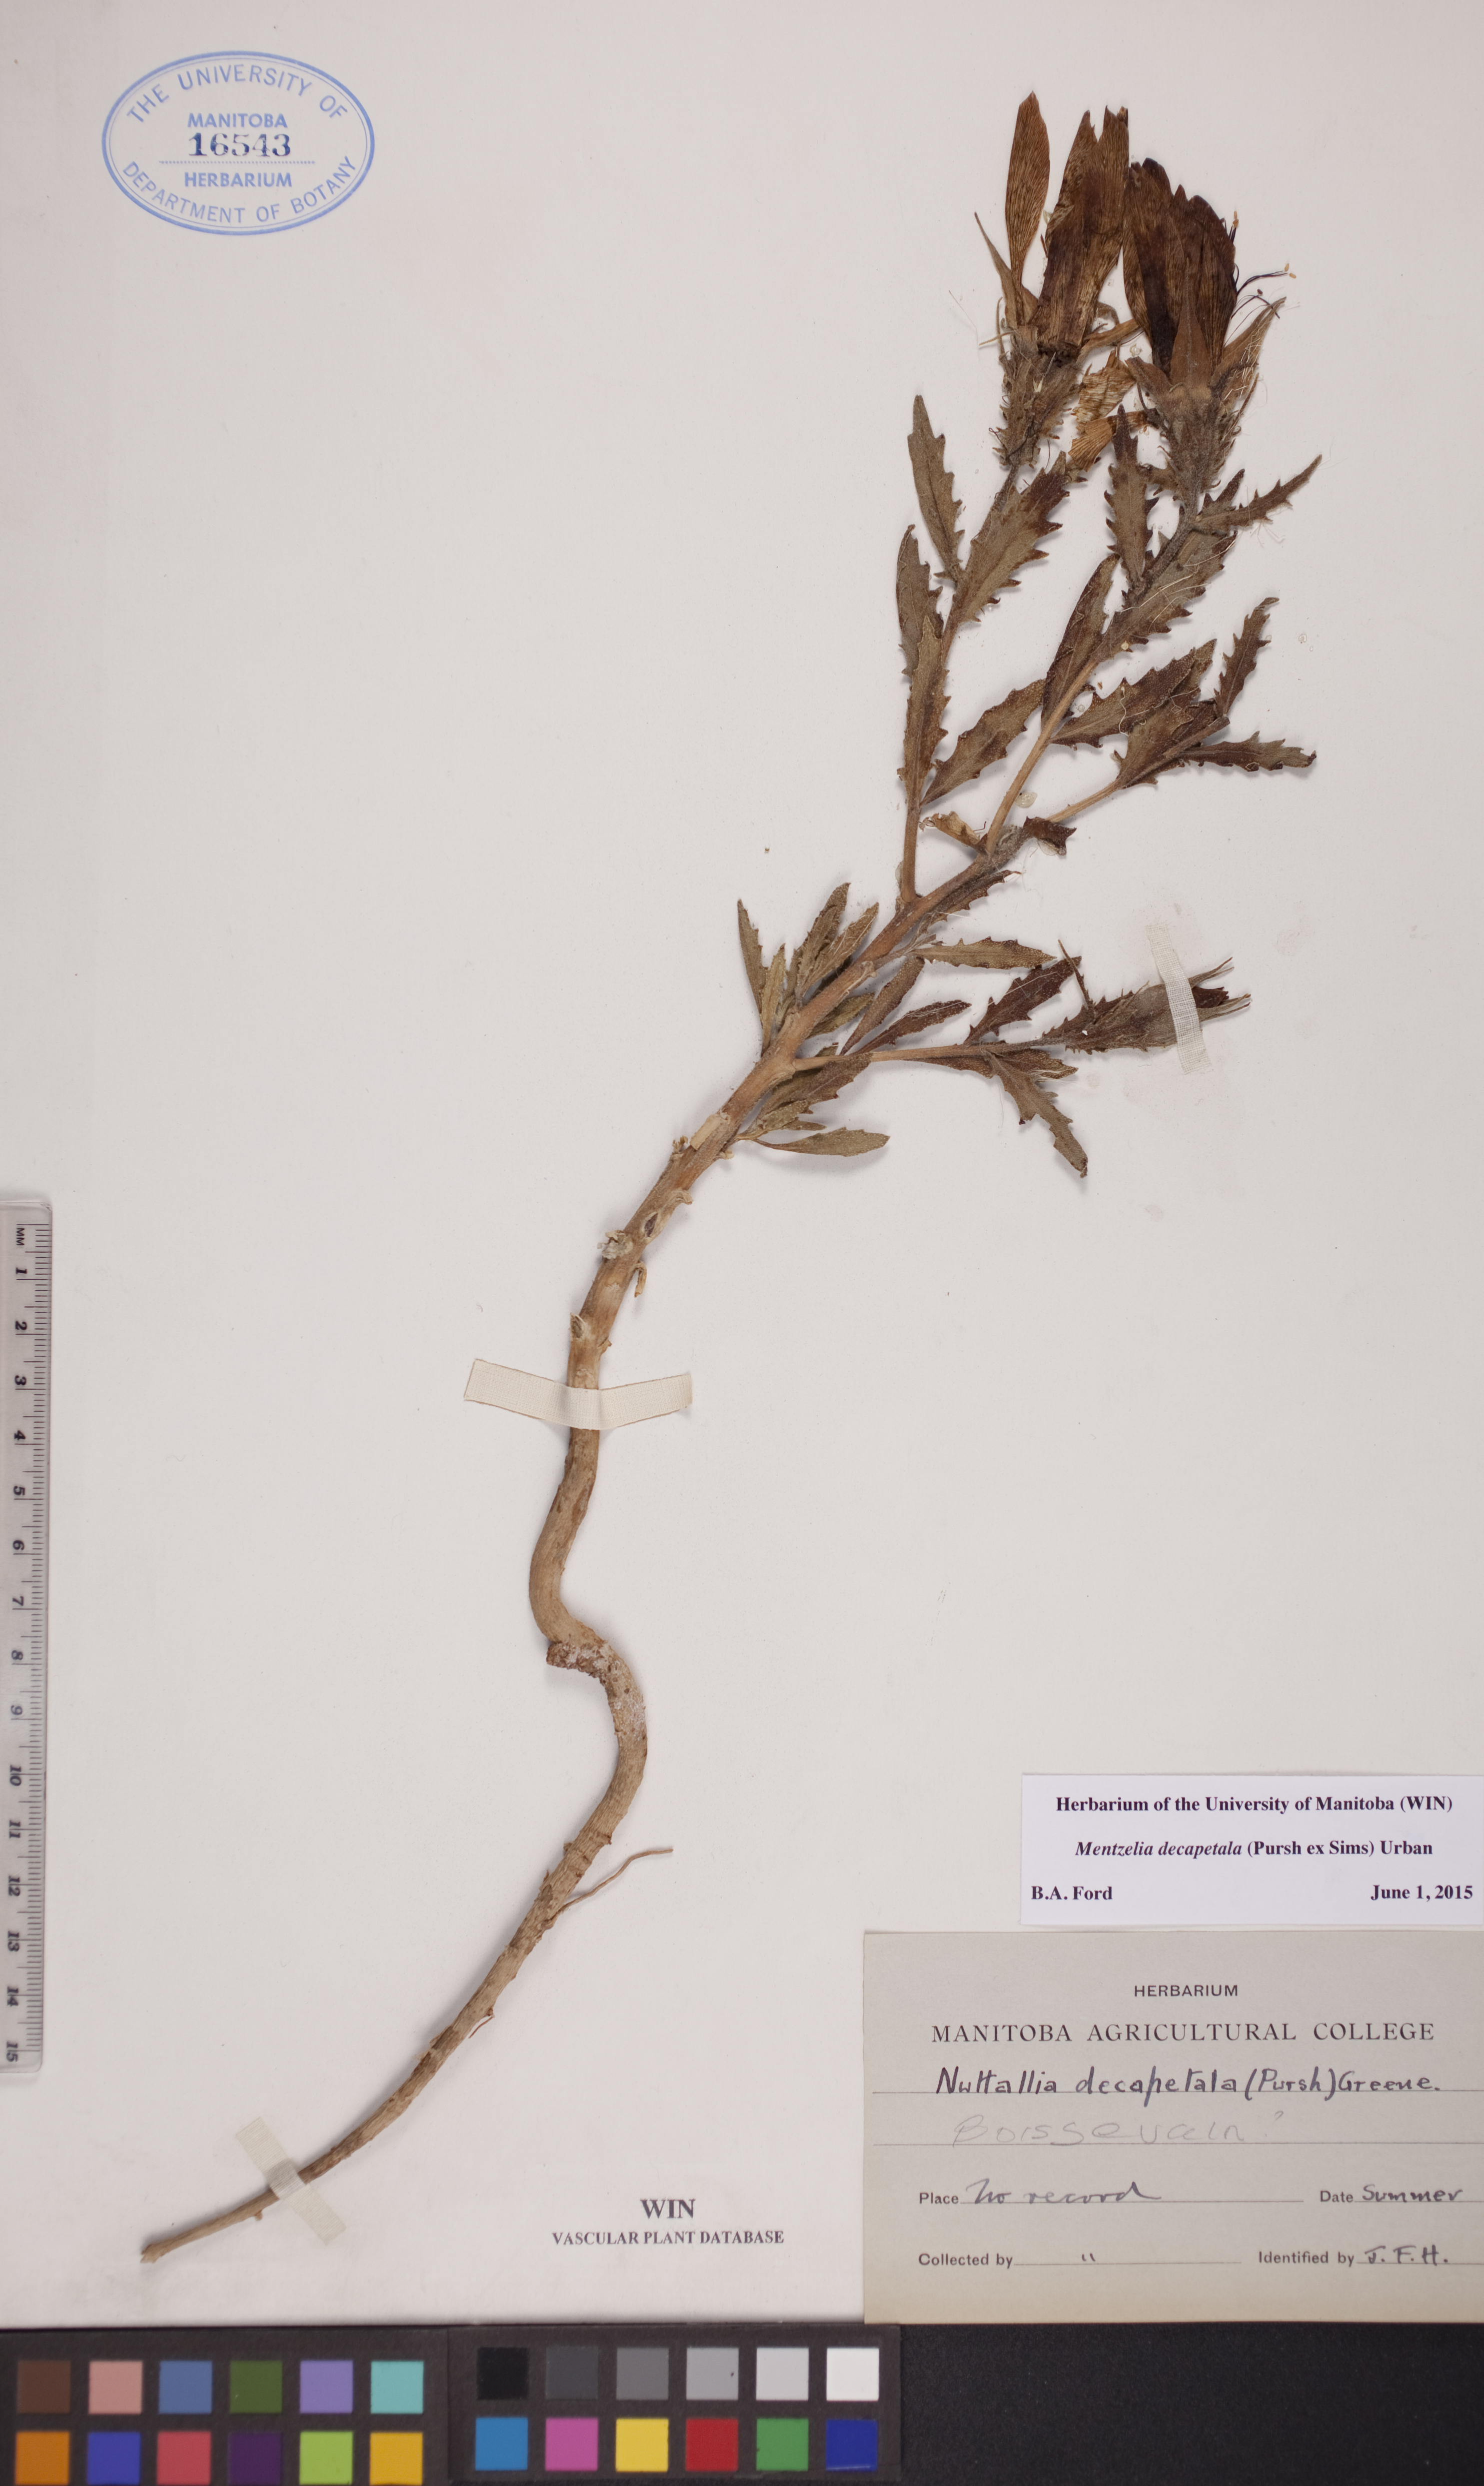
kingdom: Plantae
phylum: Tracheophyta
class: Magnoliopsida
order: Cornales
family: Loasaceae
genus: Mentzelia
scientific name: Mentzelia decapetala
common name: Gumbo-lily
